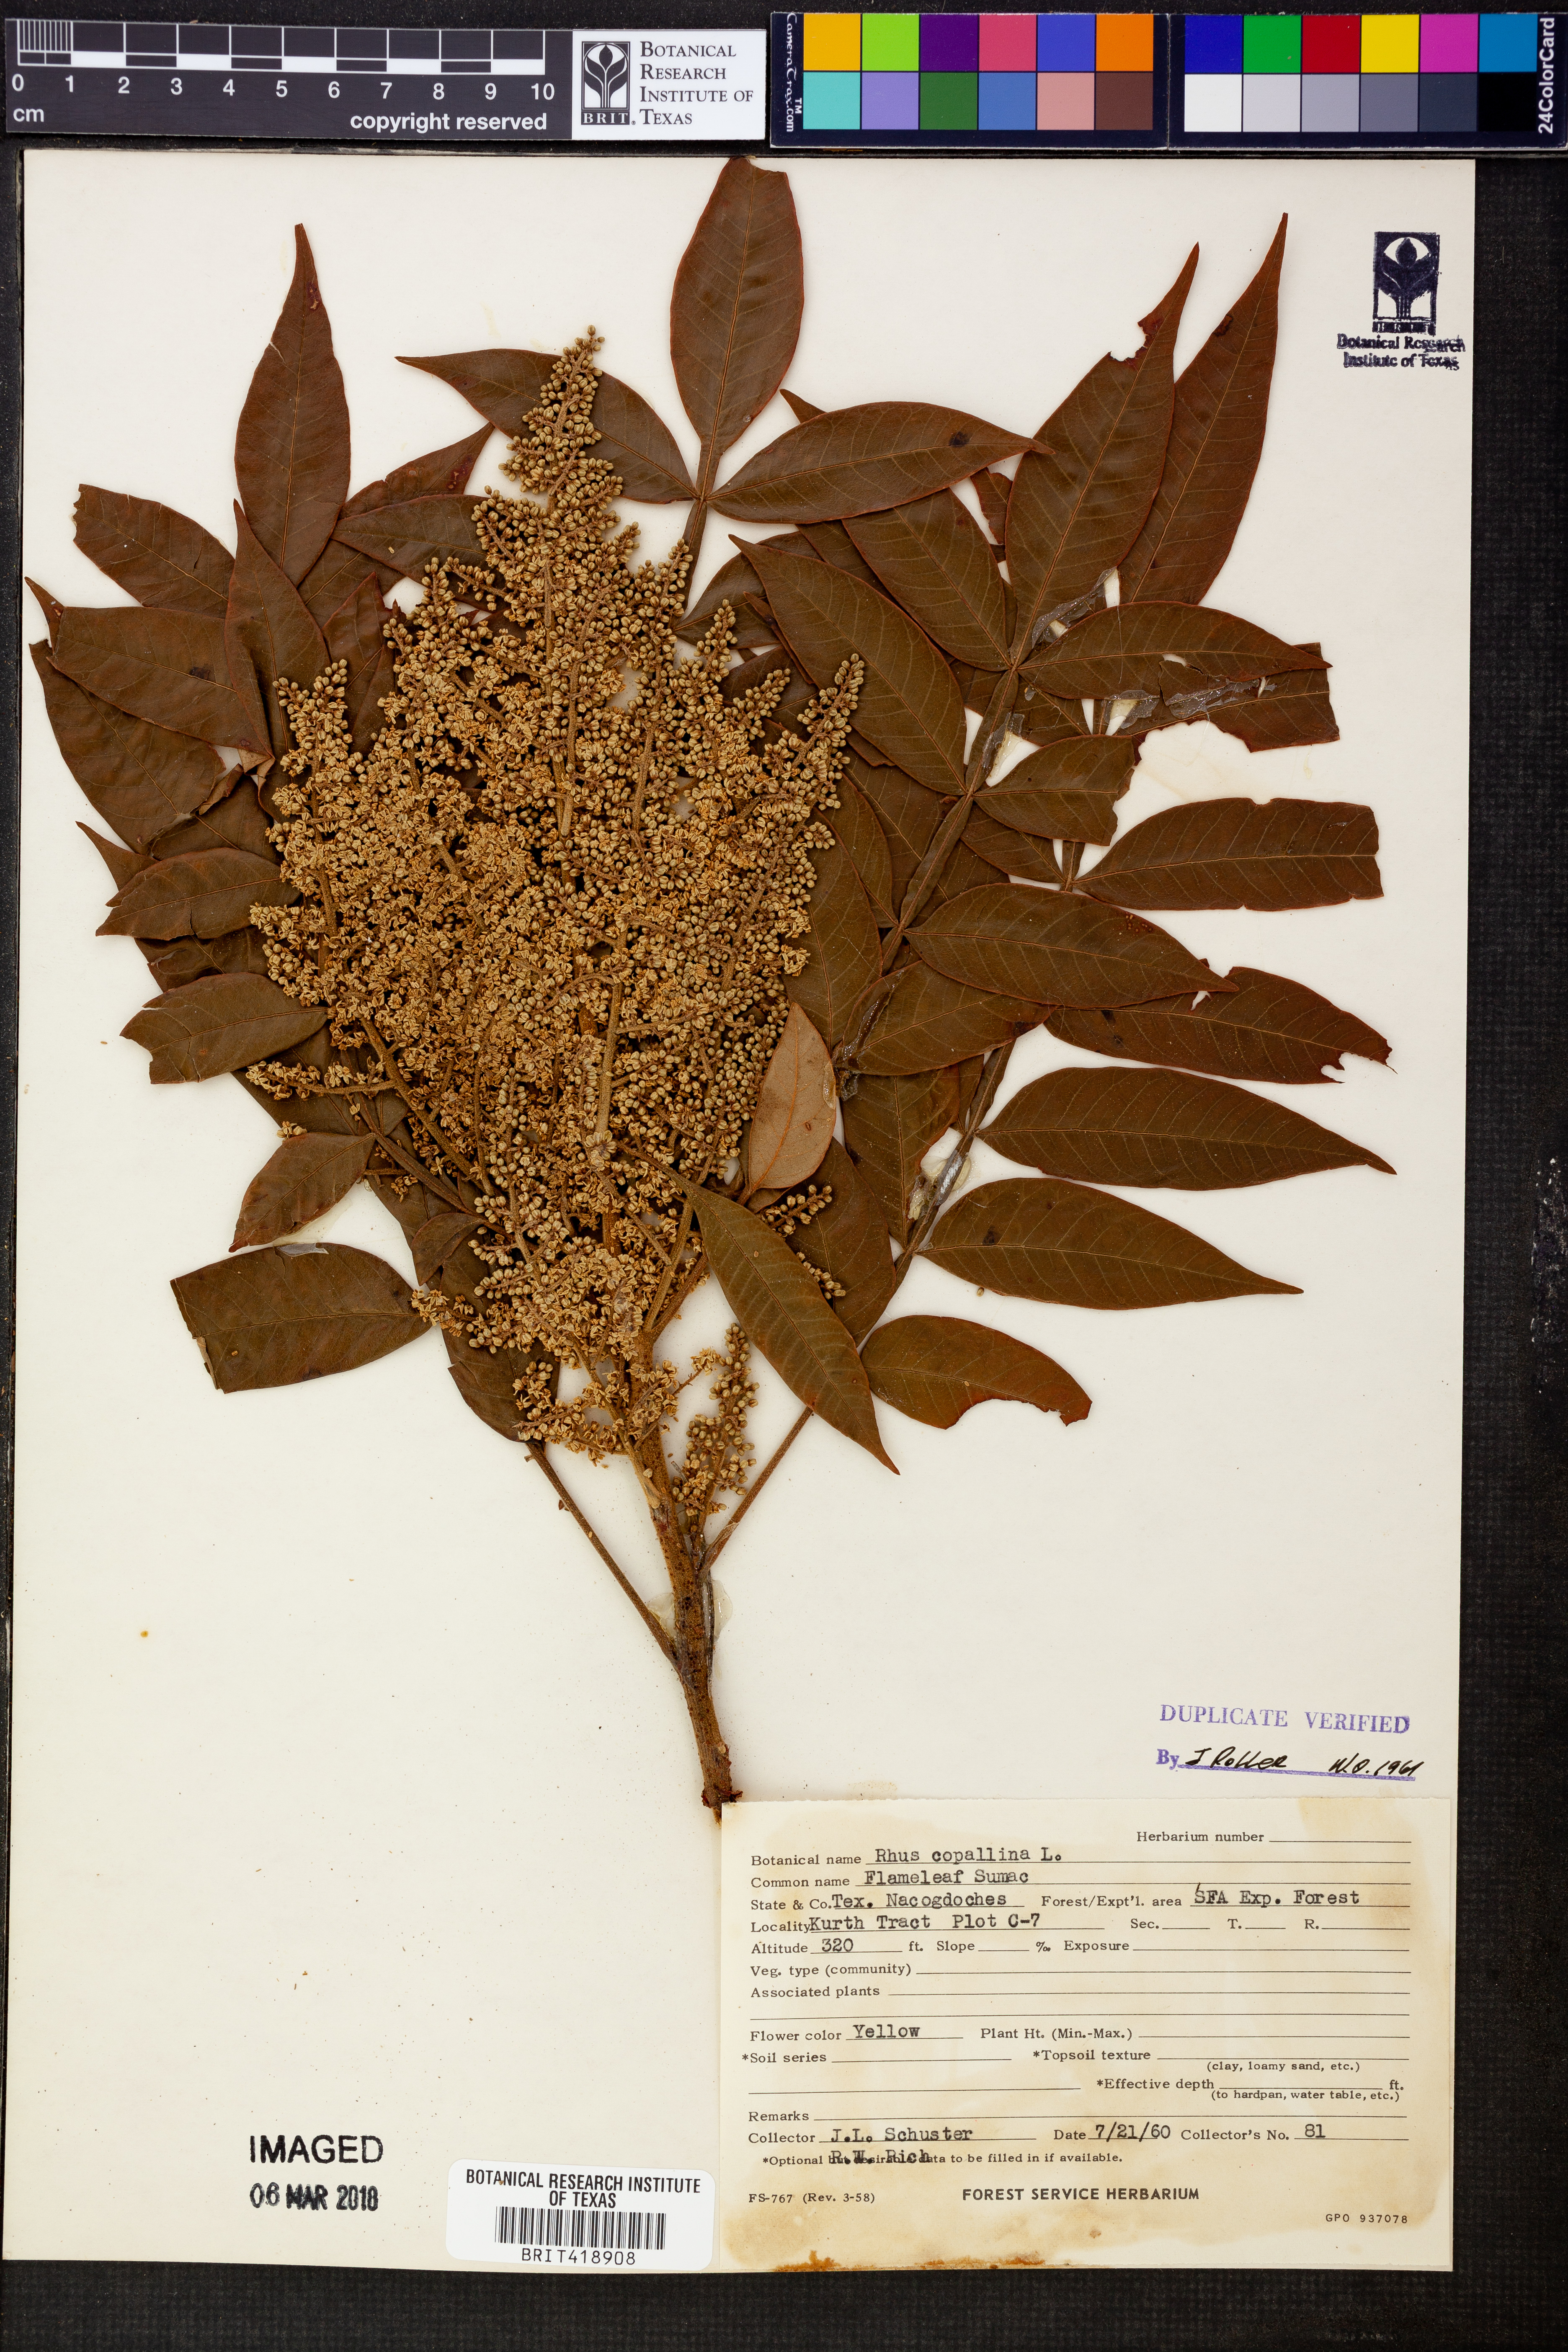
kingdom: Plantae
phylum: Tracheophyta
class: Magnoliopsida
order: Sapindales
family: Anacardiaceae
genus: Rhus
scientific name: Rhus copallina
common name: Shining sumac
